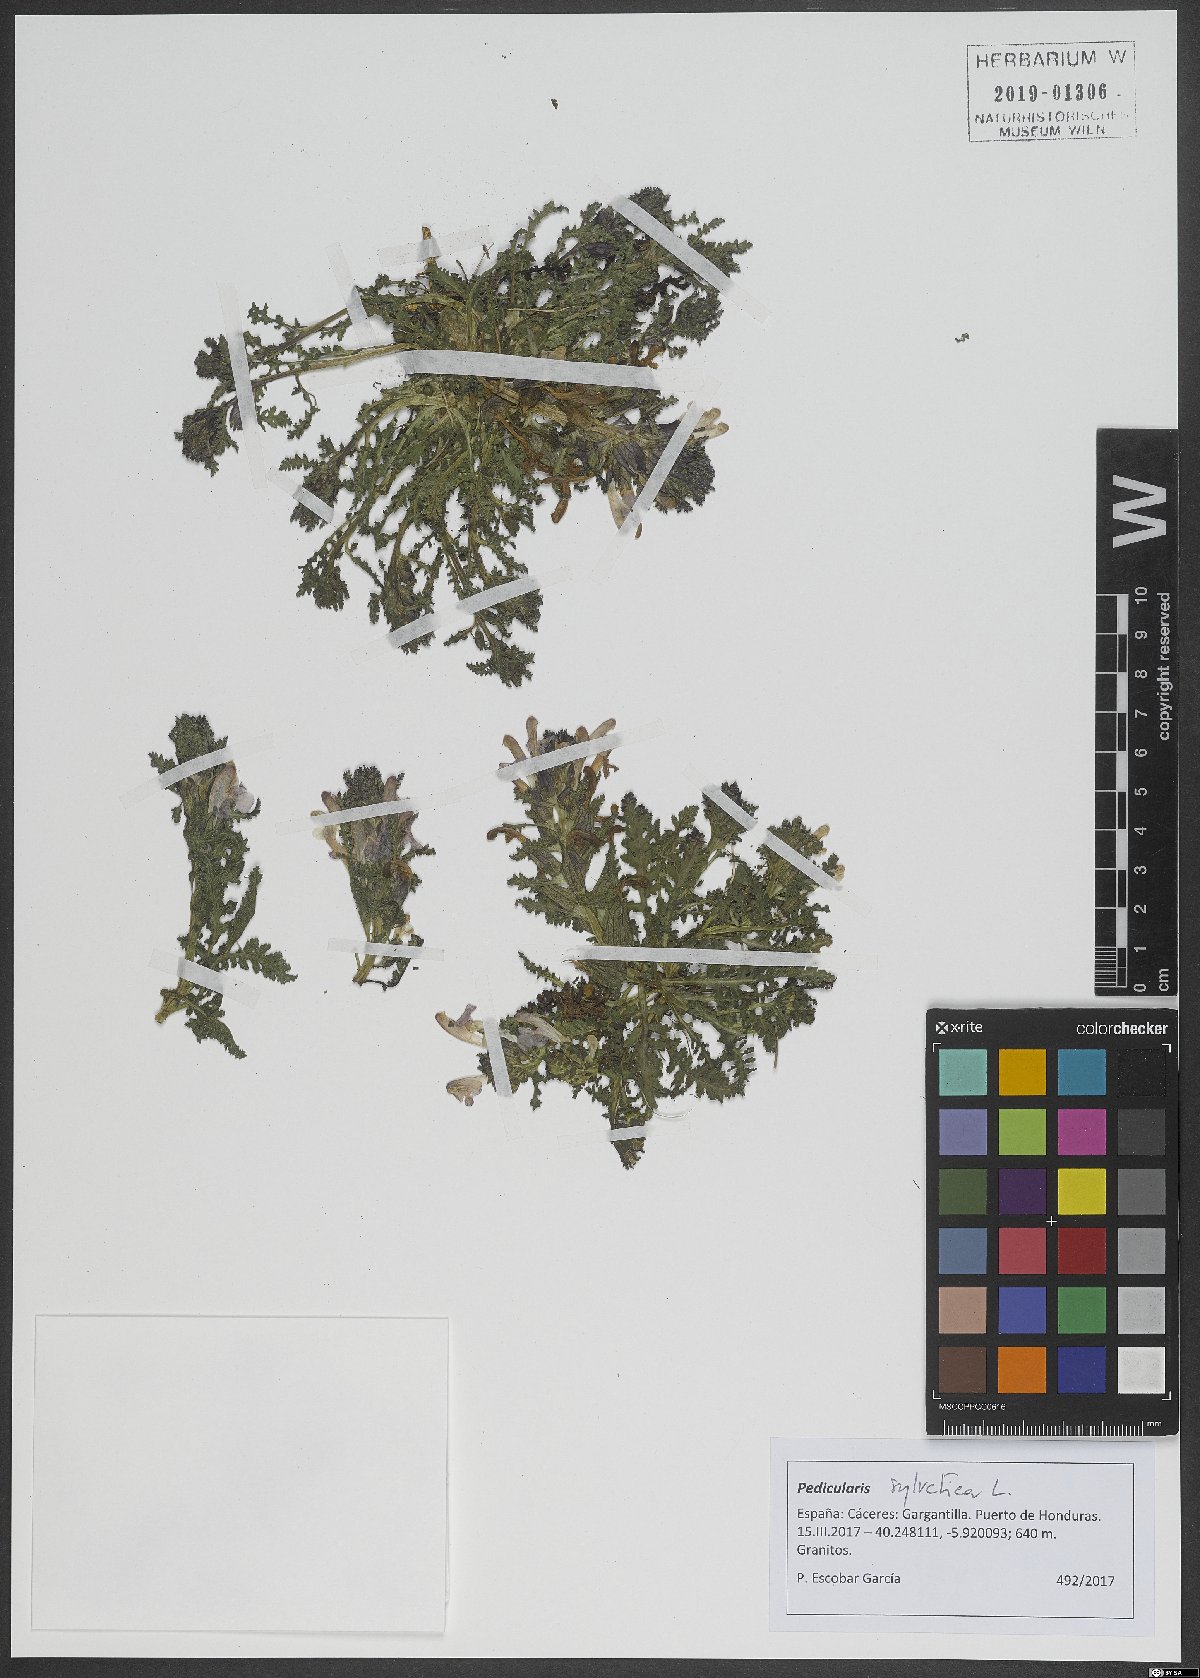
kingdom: Plantae
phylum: Tracheophyta
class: Magnoliopsida
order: Lamiales
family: Orobanchaceae
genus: Pedicularis
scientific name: Pedicularis sylvatica
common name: Lousewort
